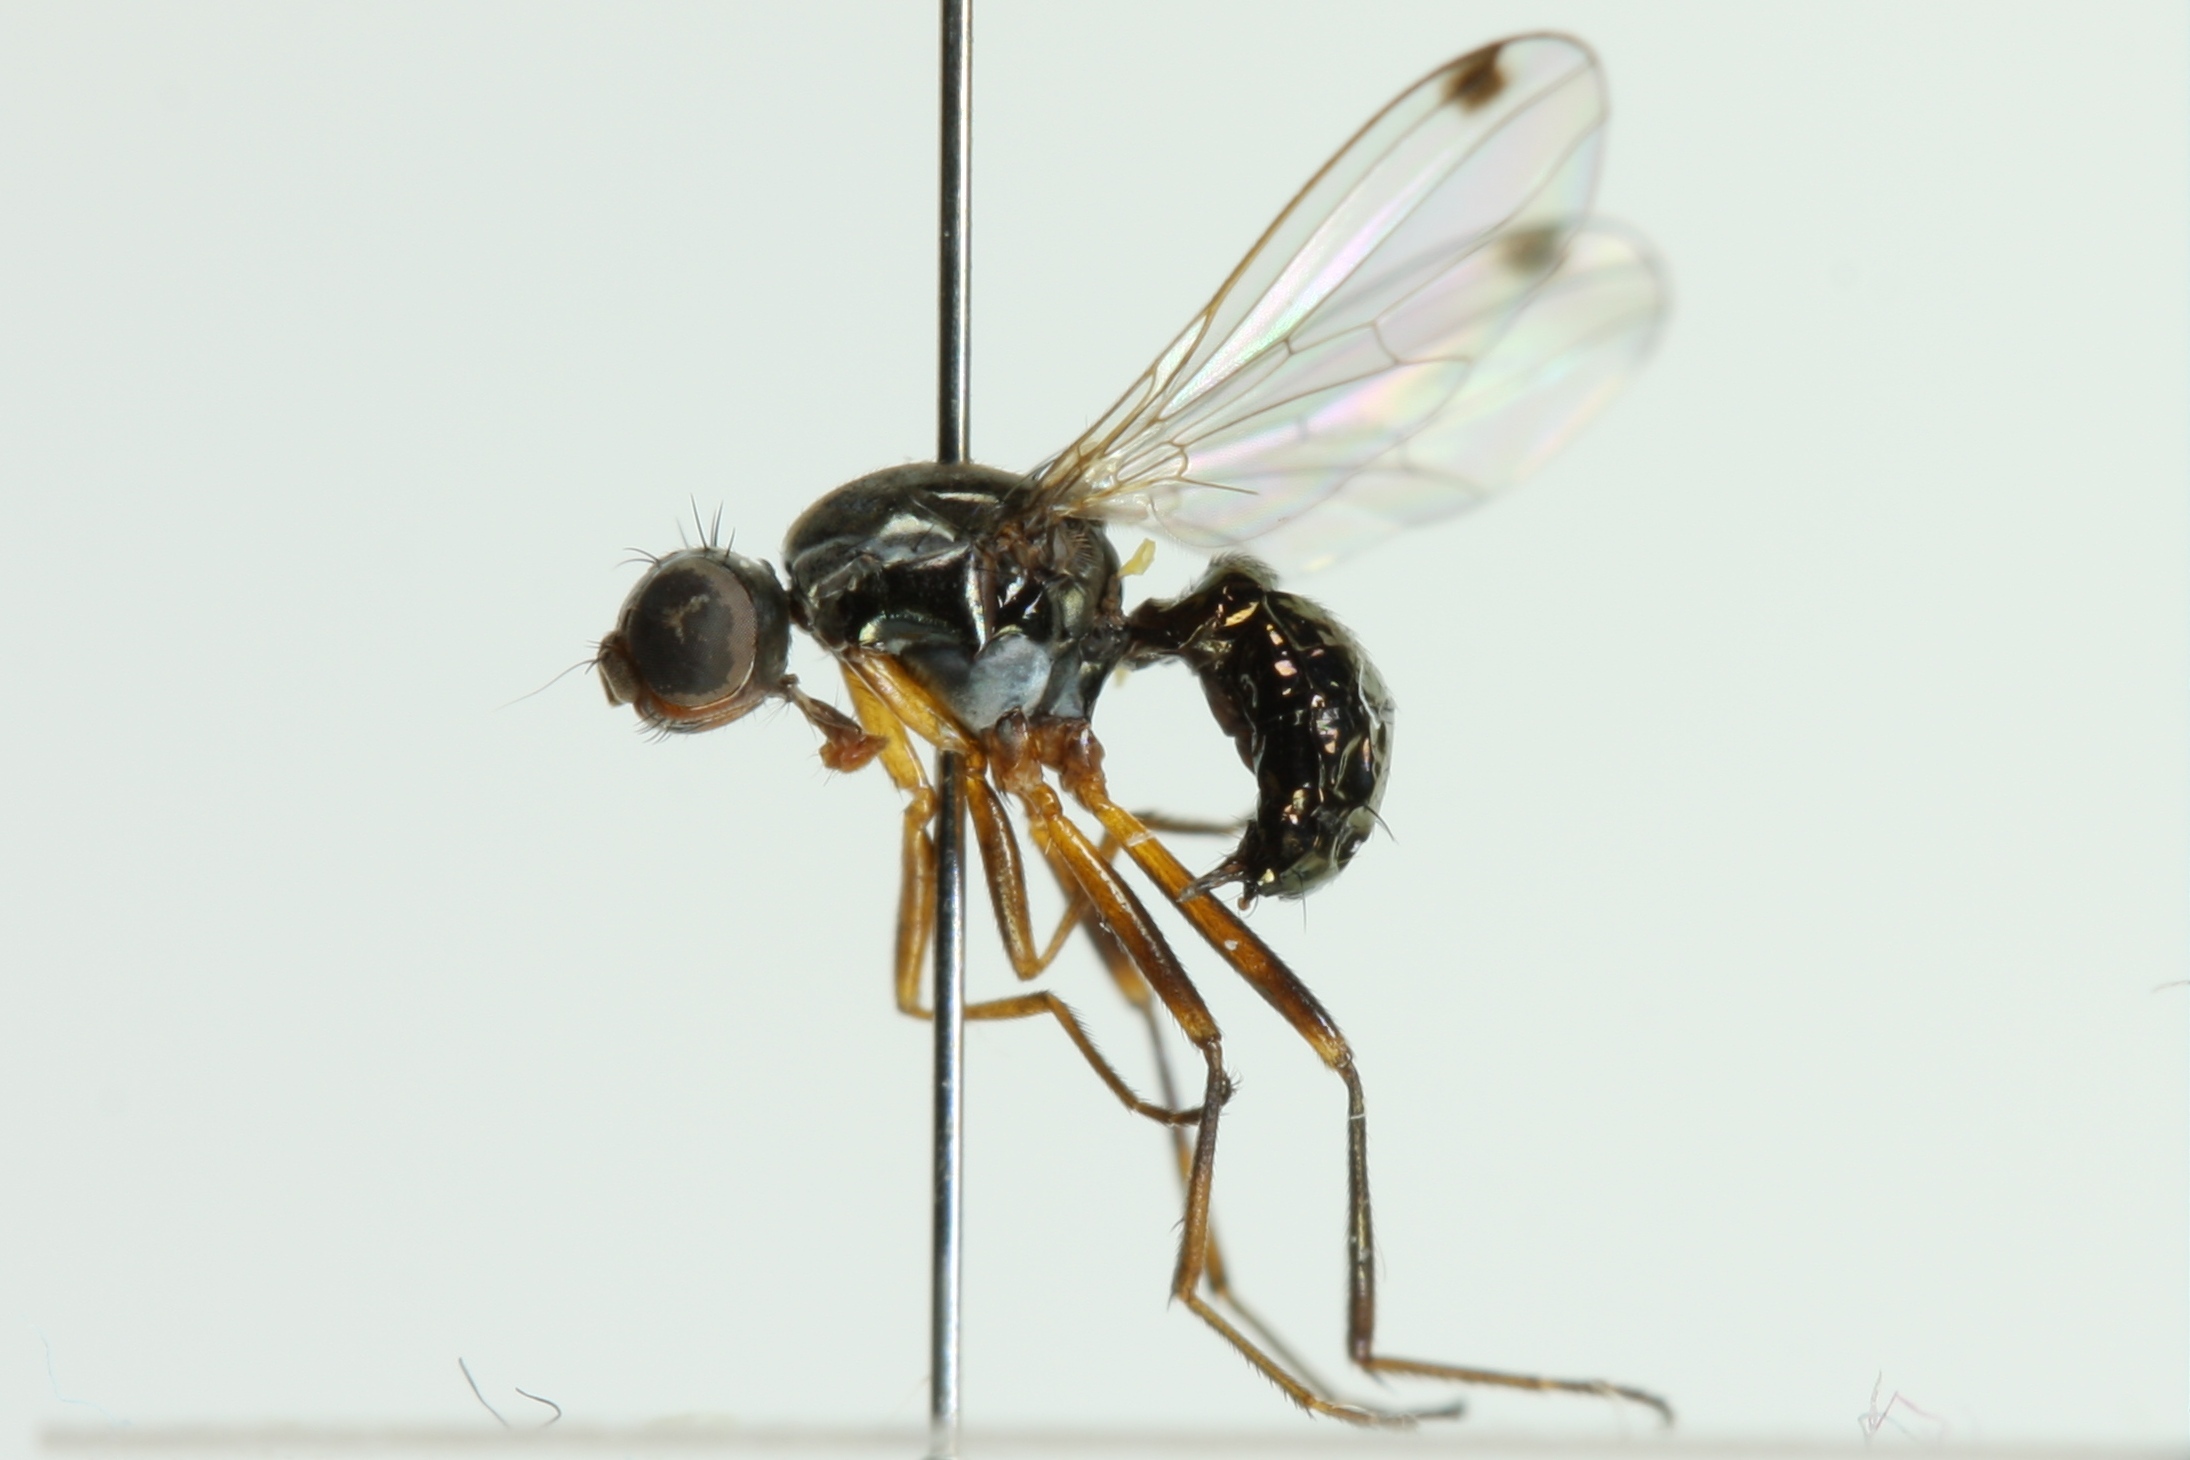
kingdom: Animalia
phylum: Arthropoda
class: Insecta
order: Diptera
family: Sepsidae
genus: Sepsis
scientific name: Sepsis punctum
